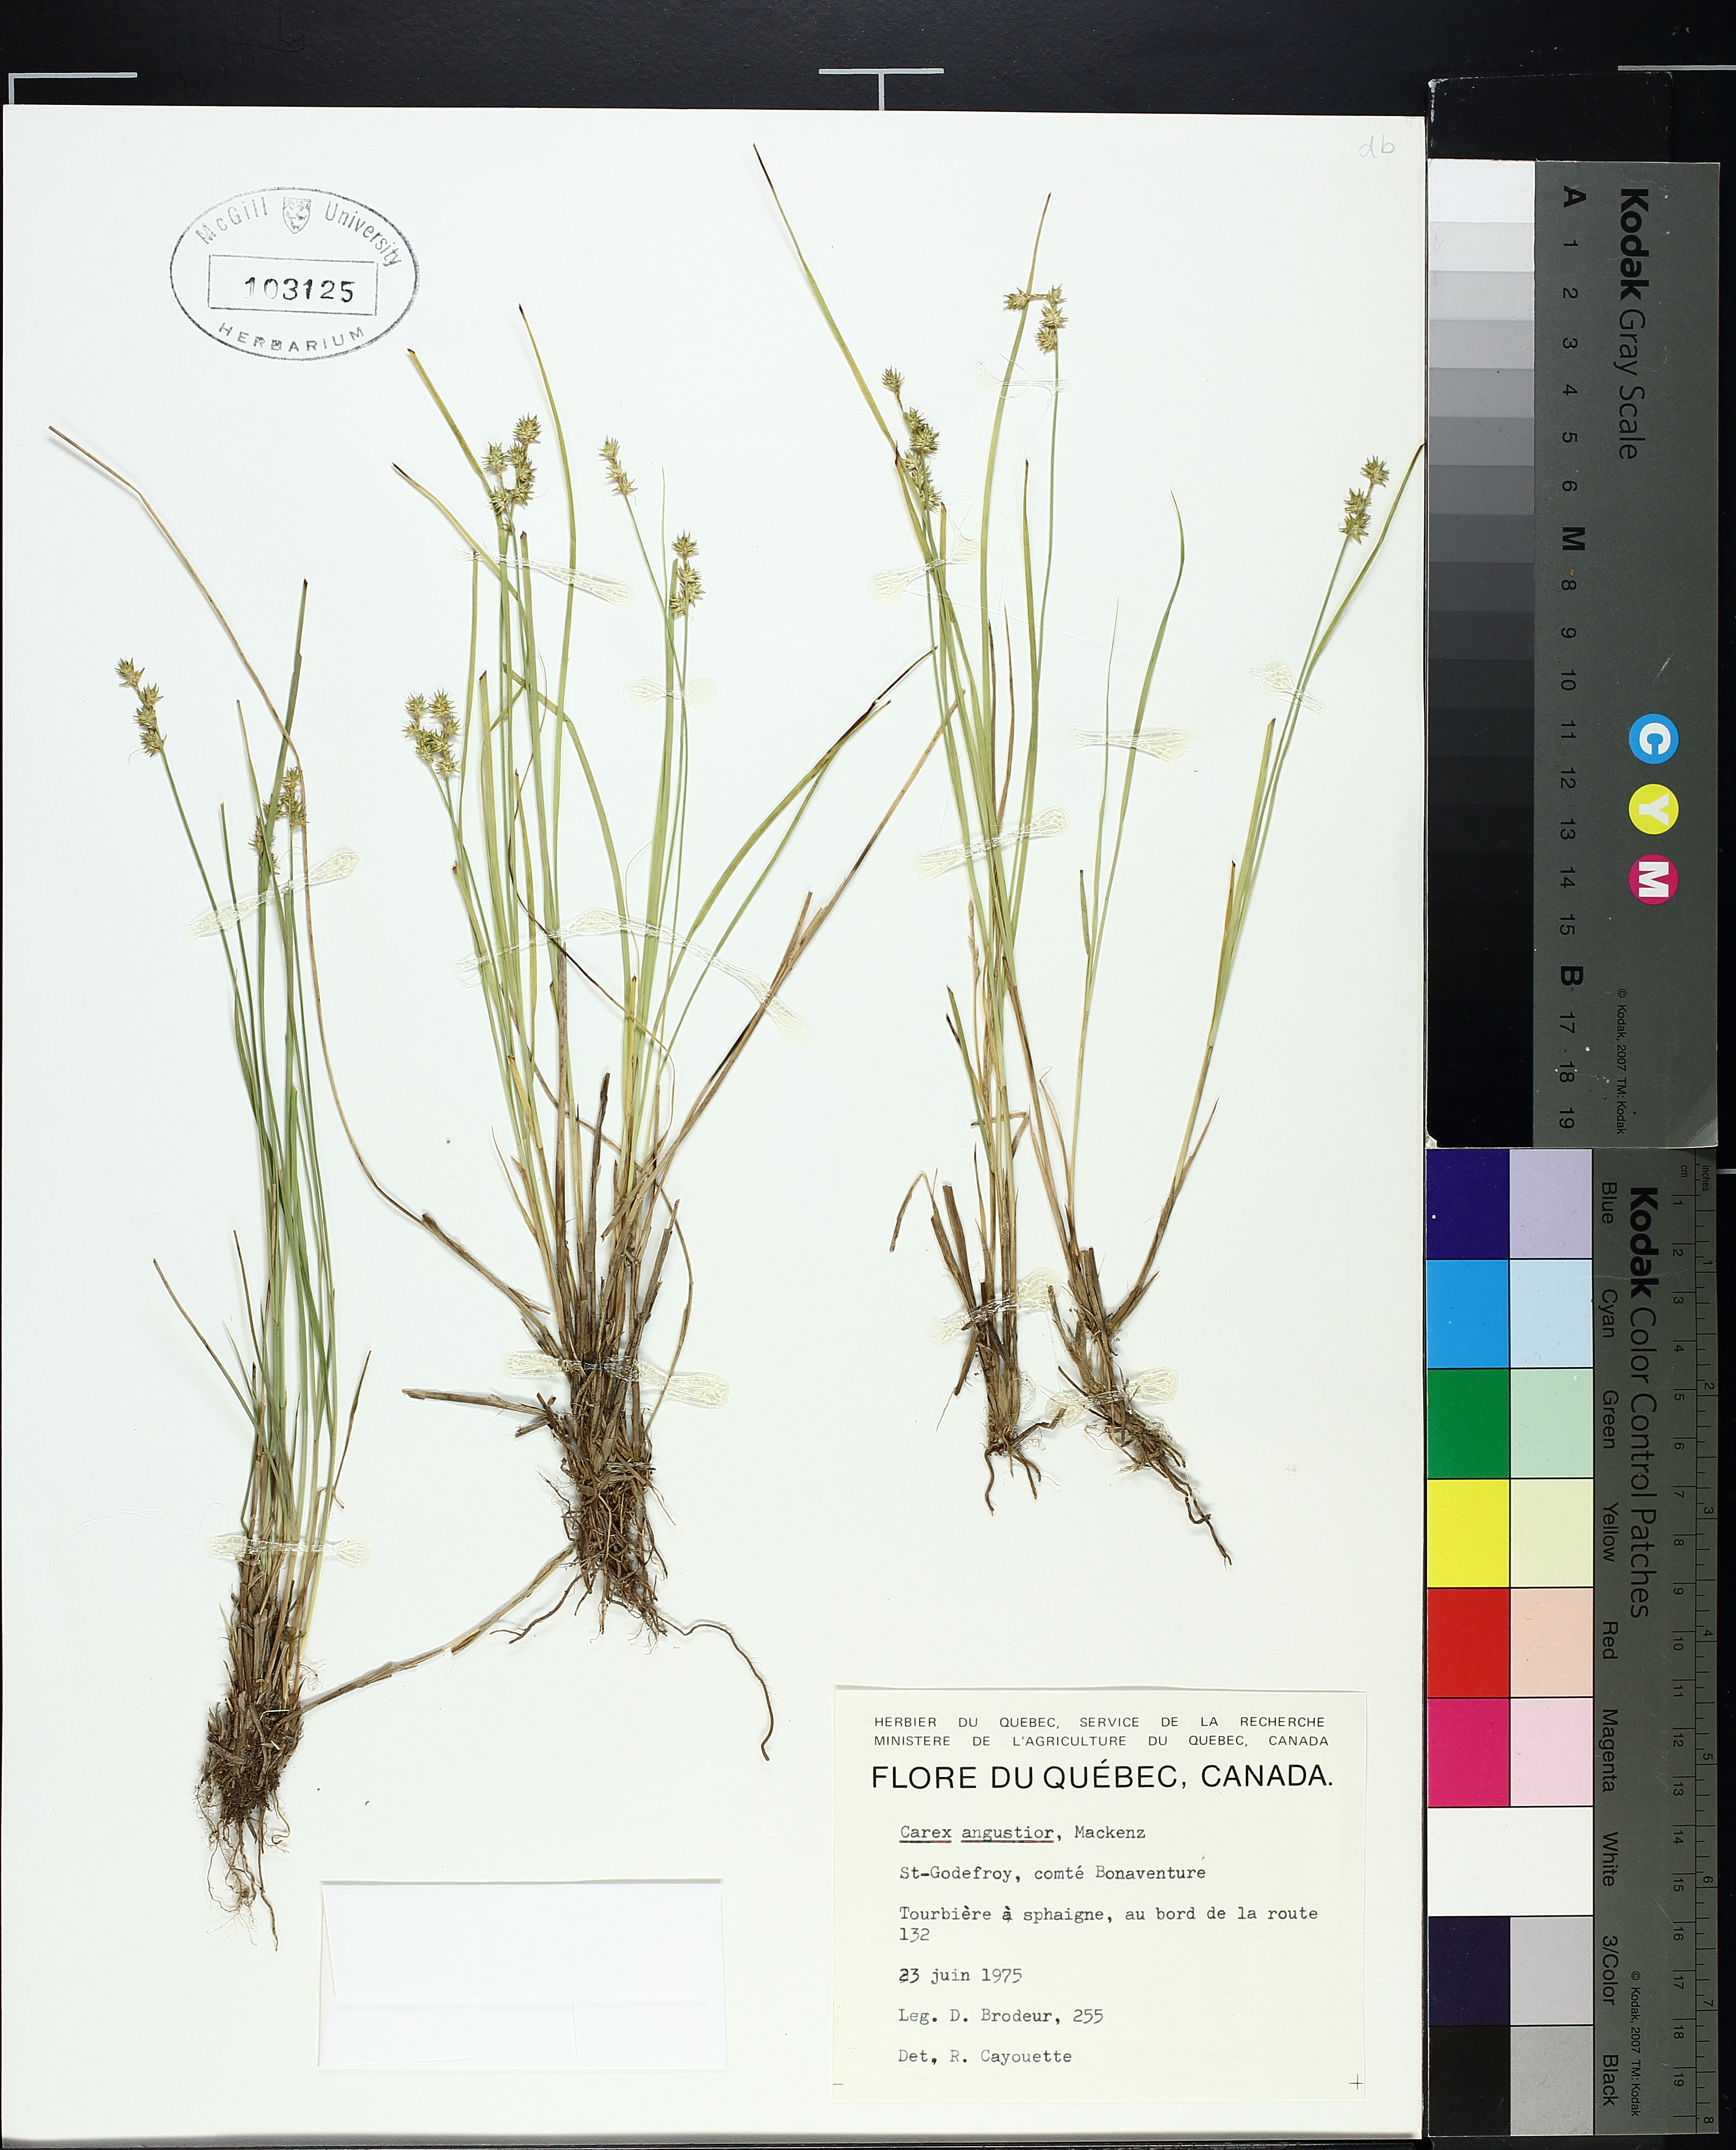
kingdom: Plantae
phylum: Tracheophyta
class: Liliopsida
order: Poales
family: Cyperaceae
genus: Carex
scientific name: Carex echinata
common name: Star sedge
